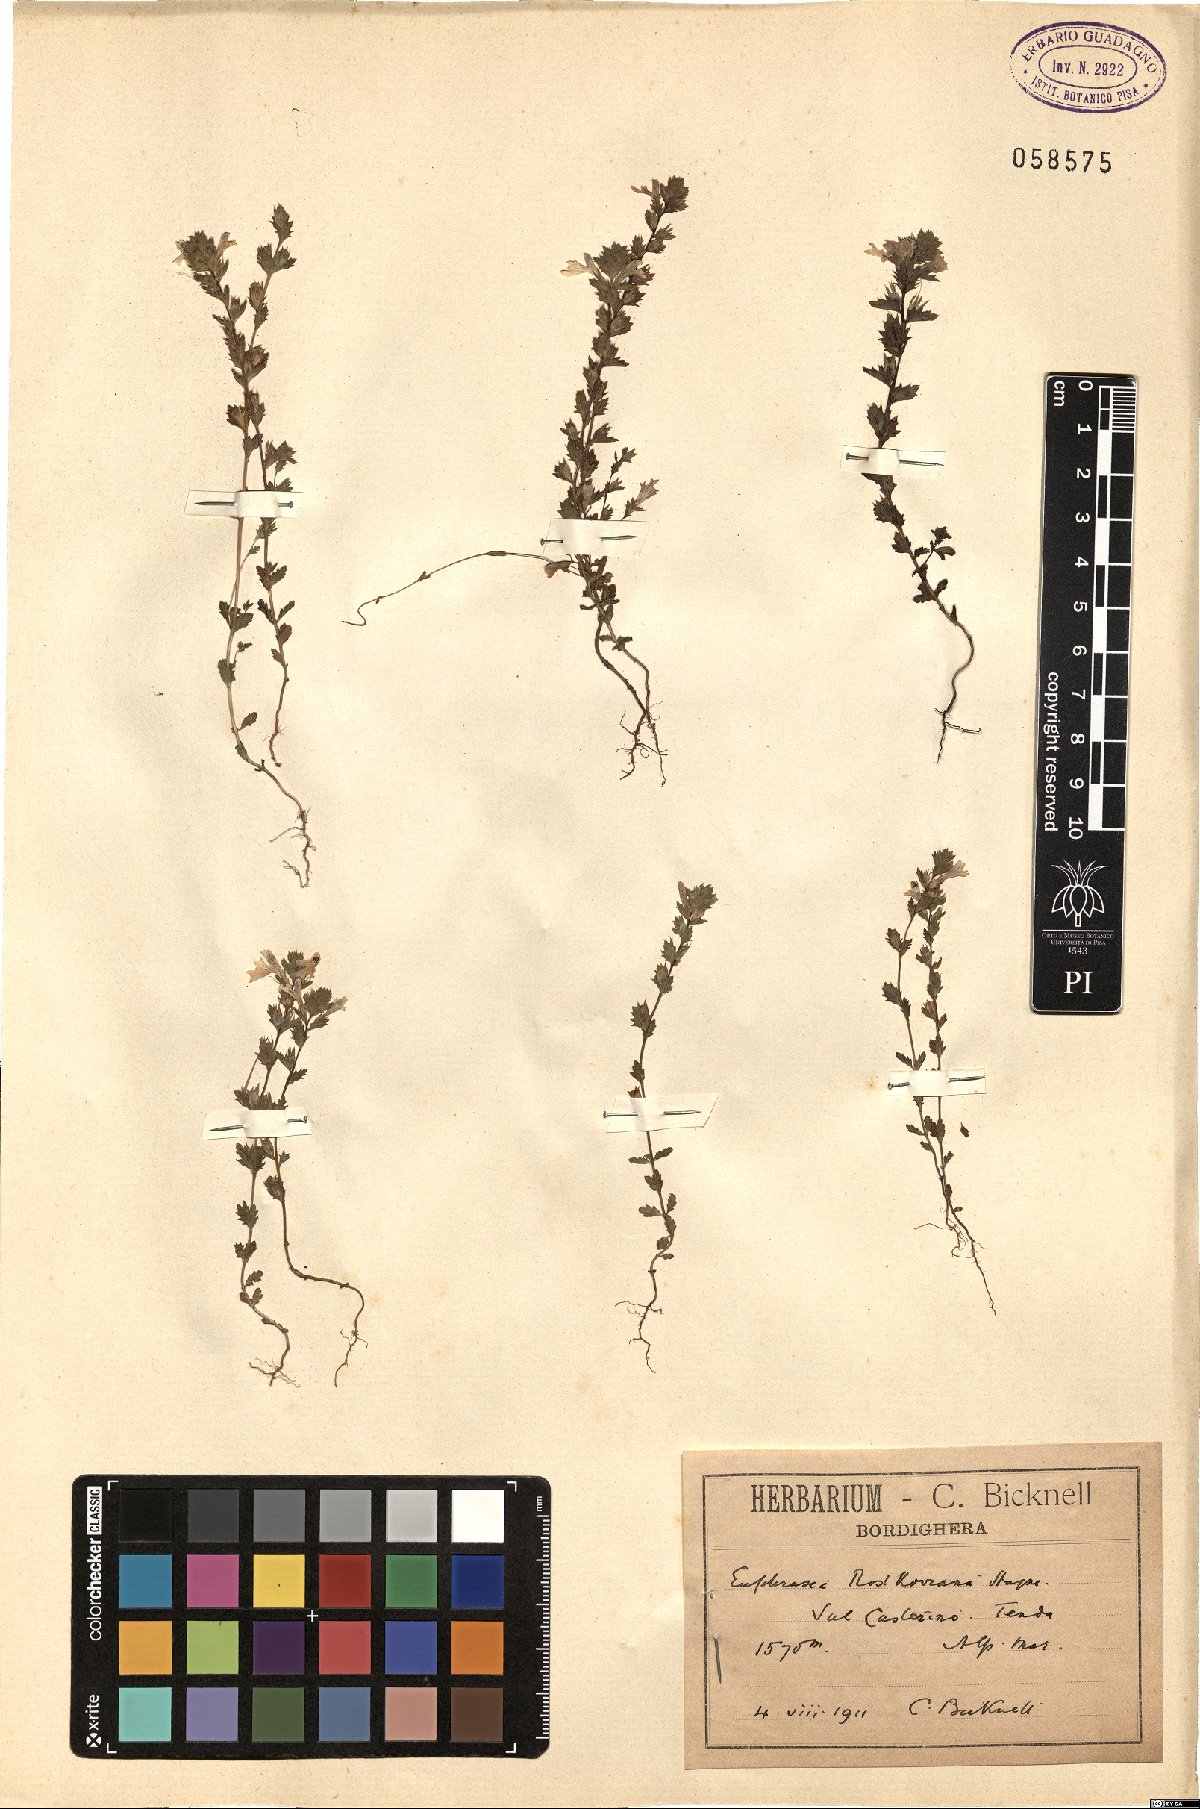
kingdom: Plantae
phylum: Tracheophyta
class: Magnoliopsida
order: Lamiales
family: Orobanchaceae
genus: Euphrasia
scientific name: Euphrasia officinalis
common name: Eyebright
